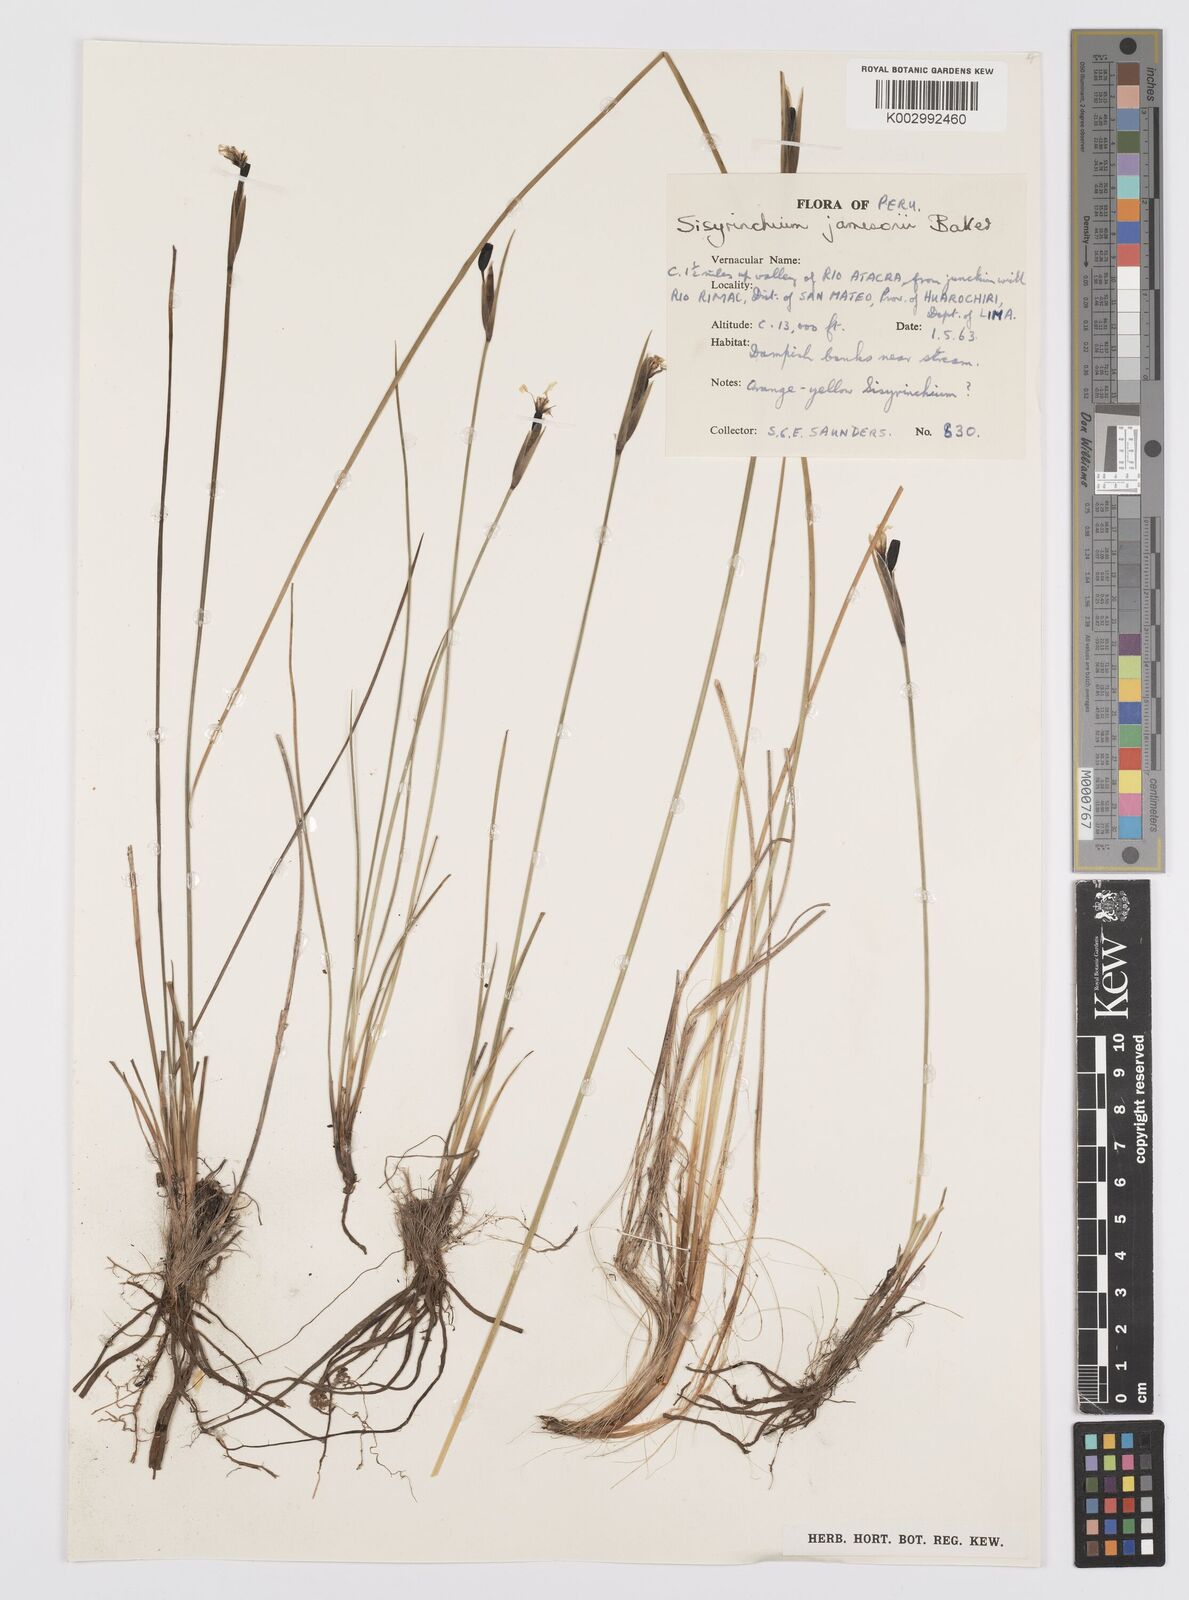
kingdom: Plantae
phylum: Tracheophyta
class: Liliopsida
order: Asparagales
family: Iridaceae
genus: Sisyrinchium
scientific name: Sisyrinchium jamesonii
